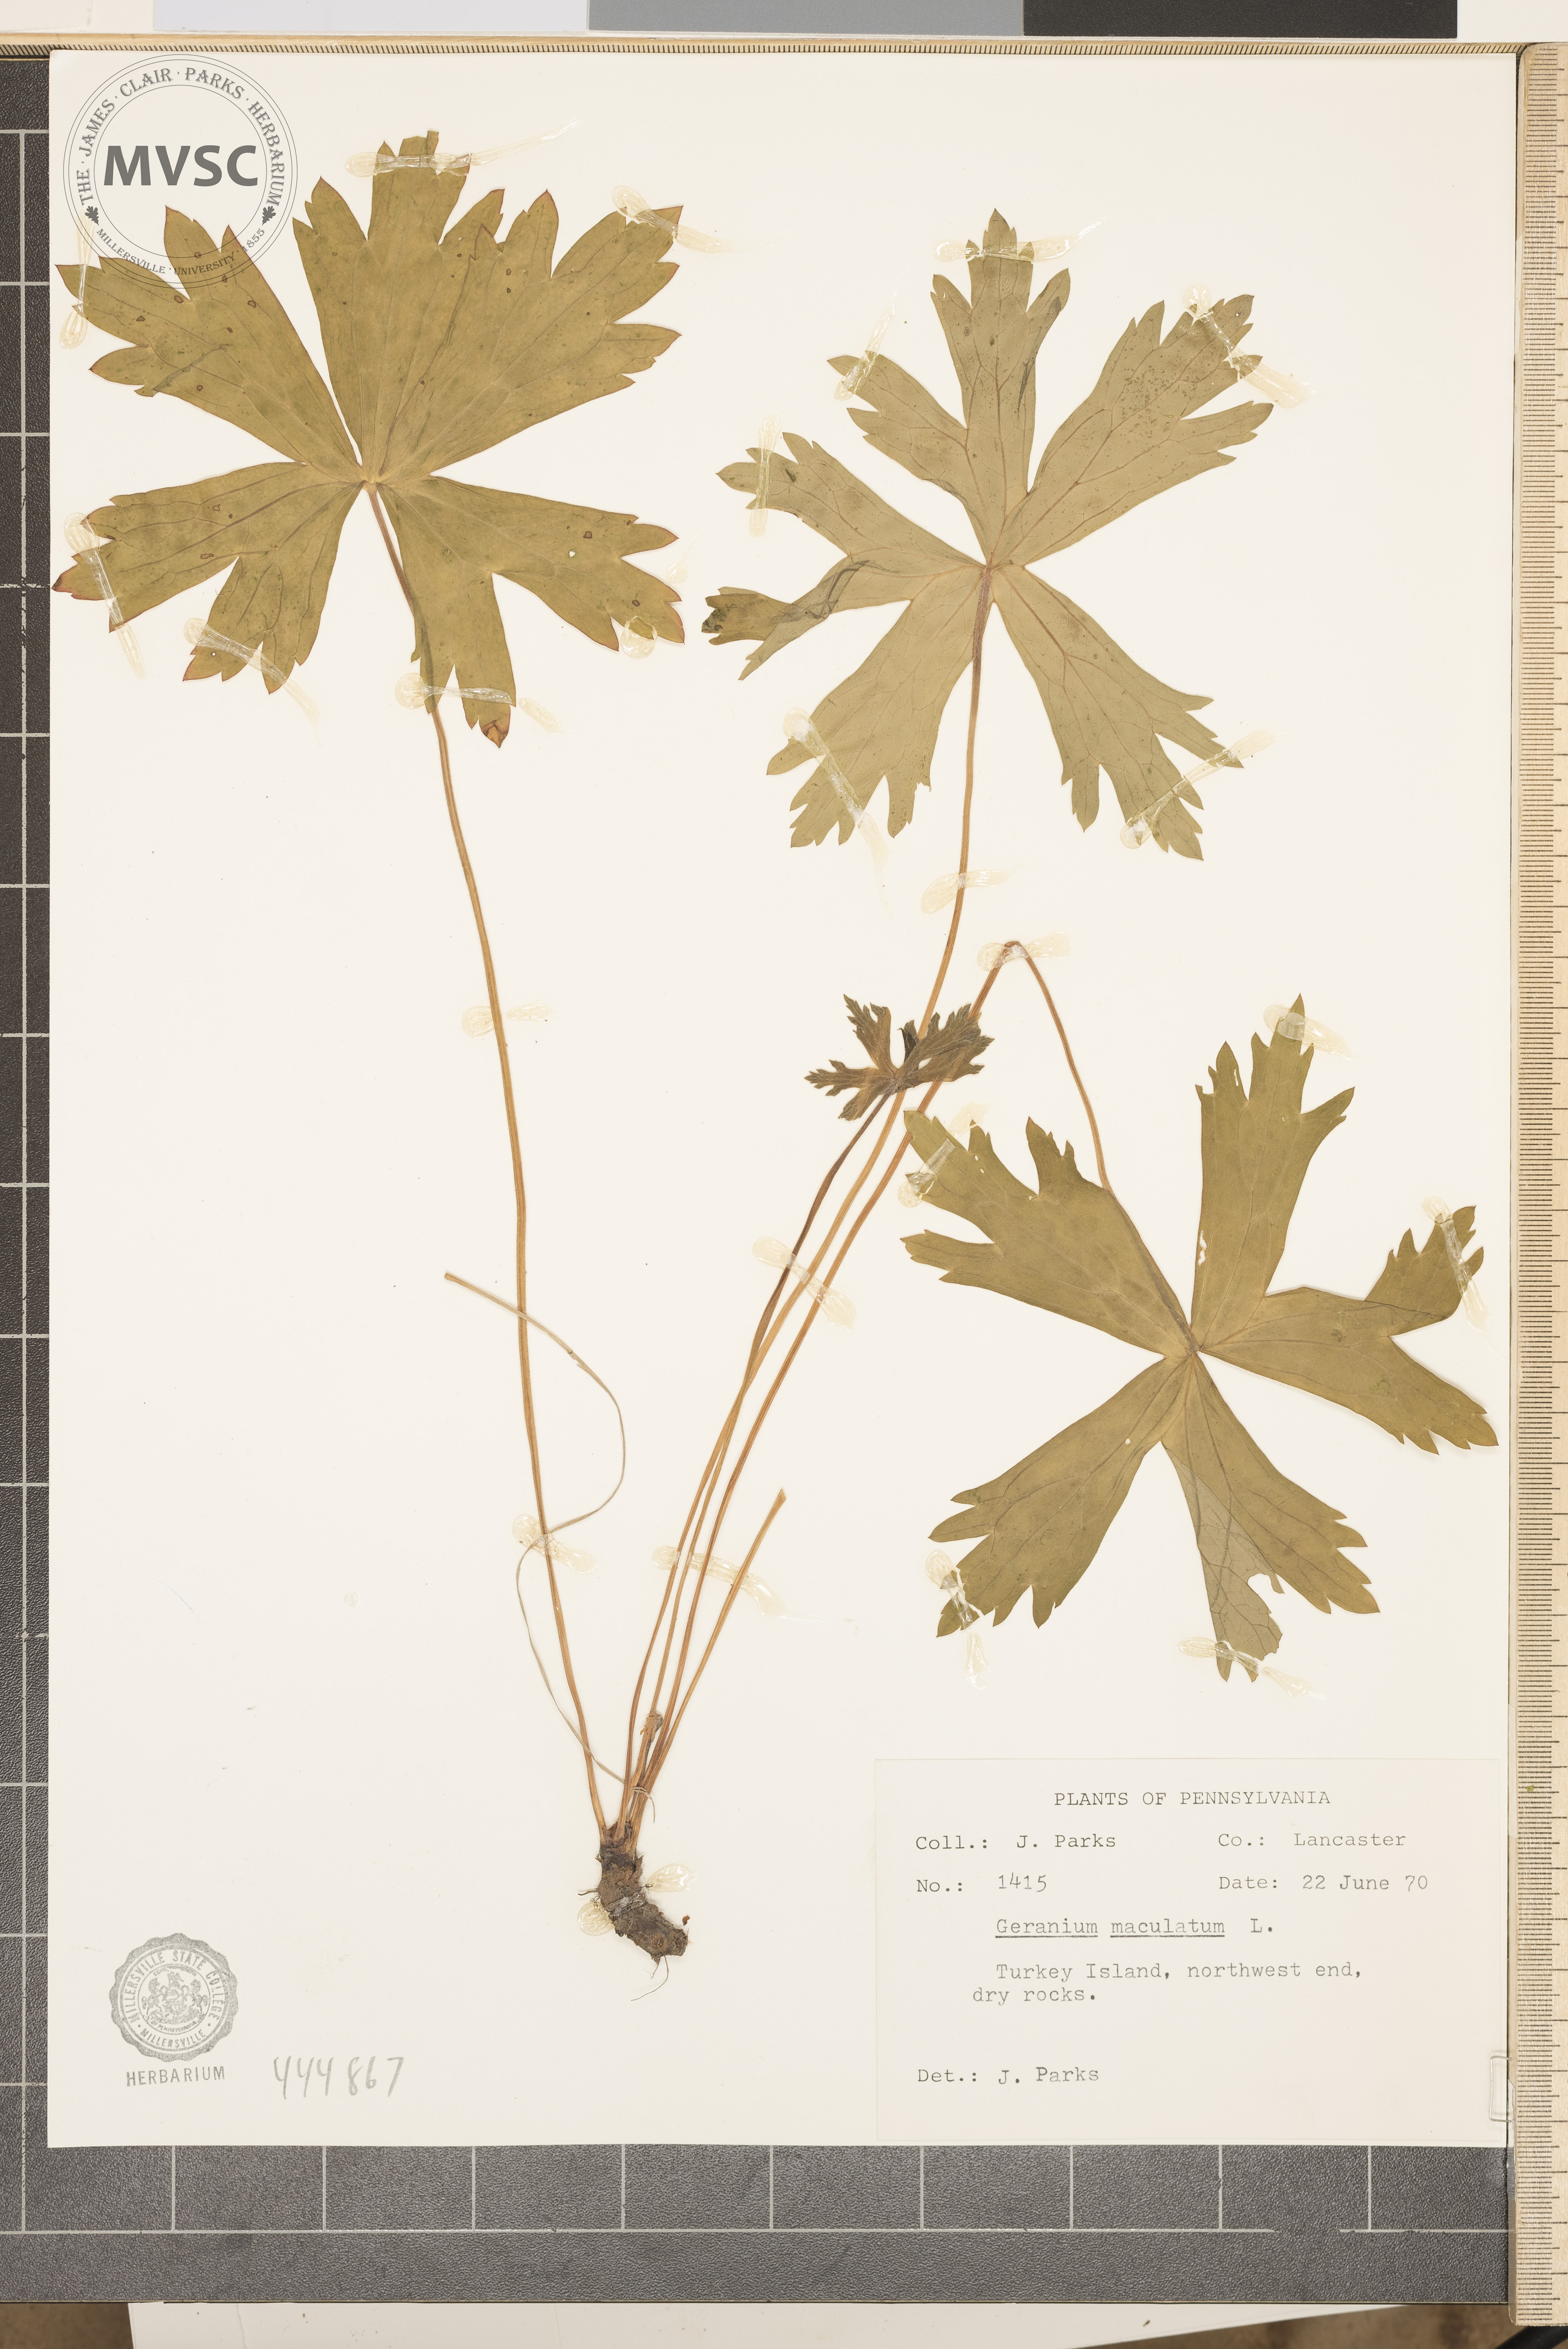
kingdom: Plantae
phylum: Tracheophyta
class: Magnoliopsida
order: Geraniales
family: Geraniaceae
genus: Geranium
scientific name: Geranium maculatum
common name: Spotted geranium
